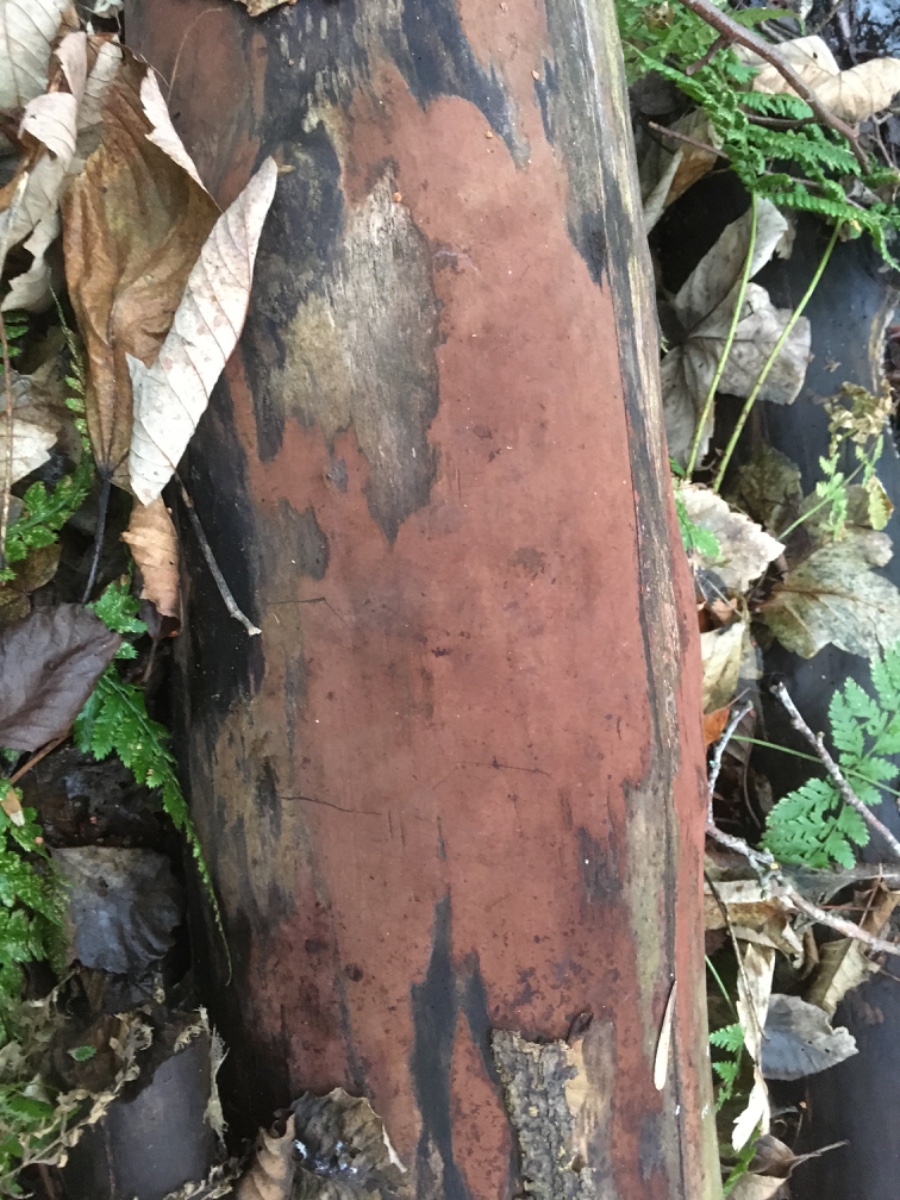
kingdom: Fungi
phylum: Ascomycota
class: Sordariomycetes
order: Xylariales
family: Hypoxylaceae
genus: Hypoxylon
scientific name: Hypoxylon macrocarpum
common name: skorpe-kulbær
